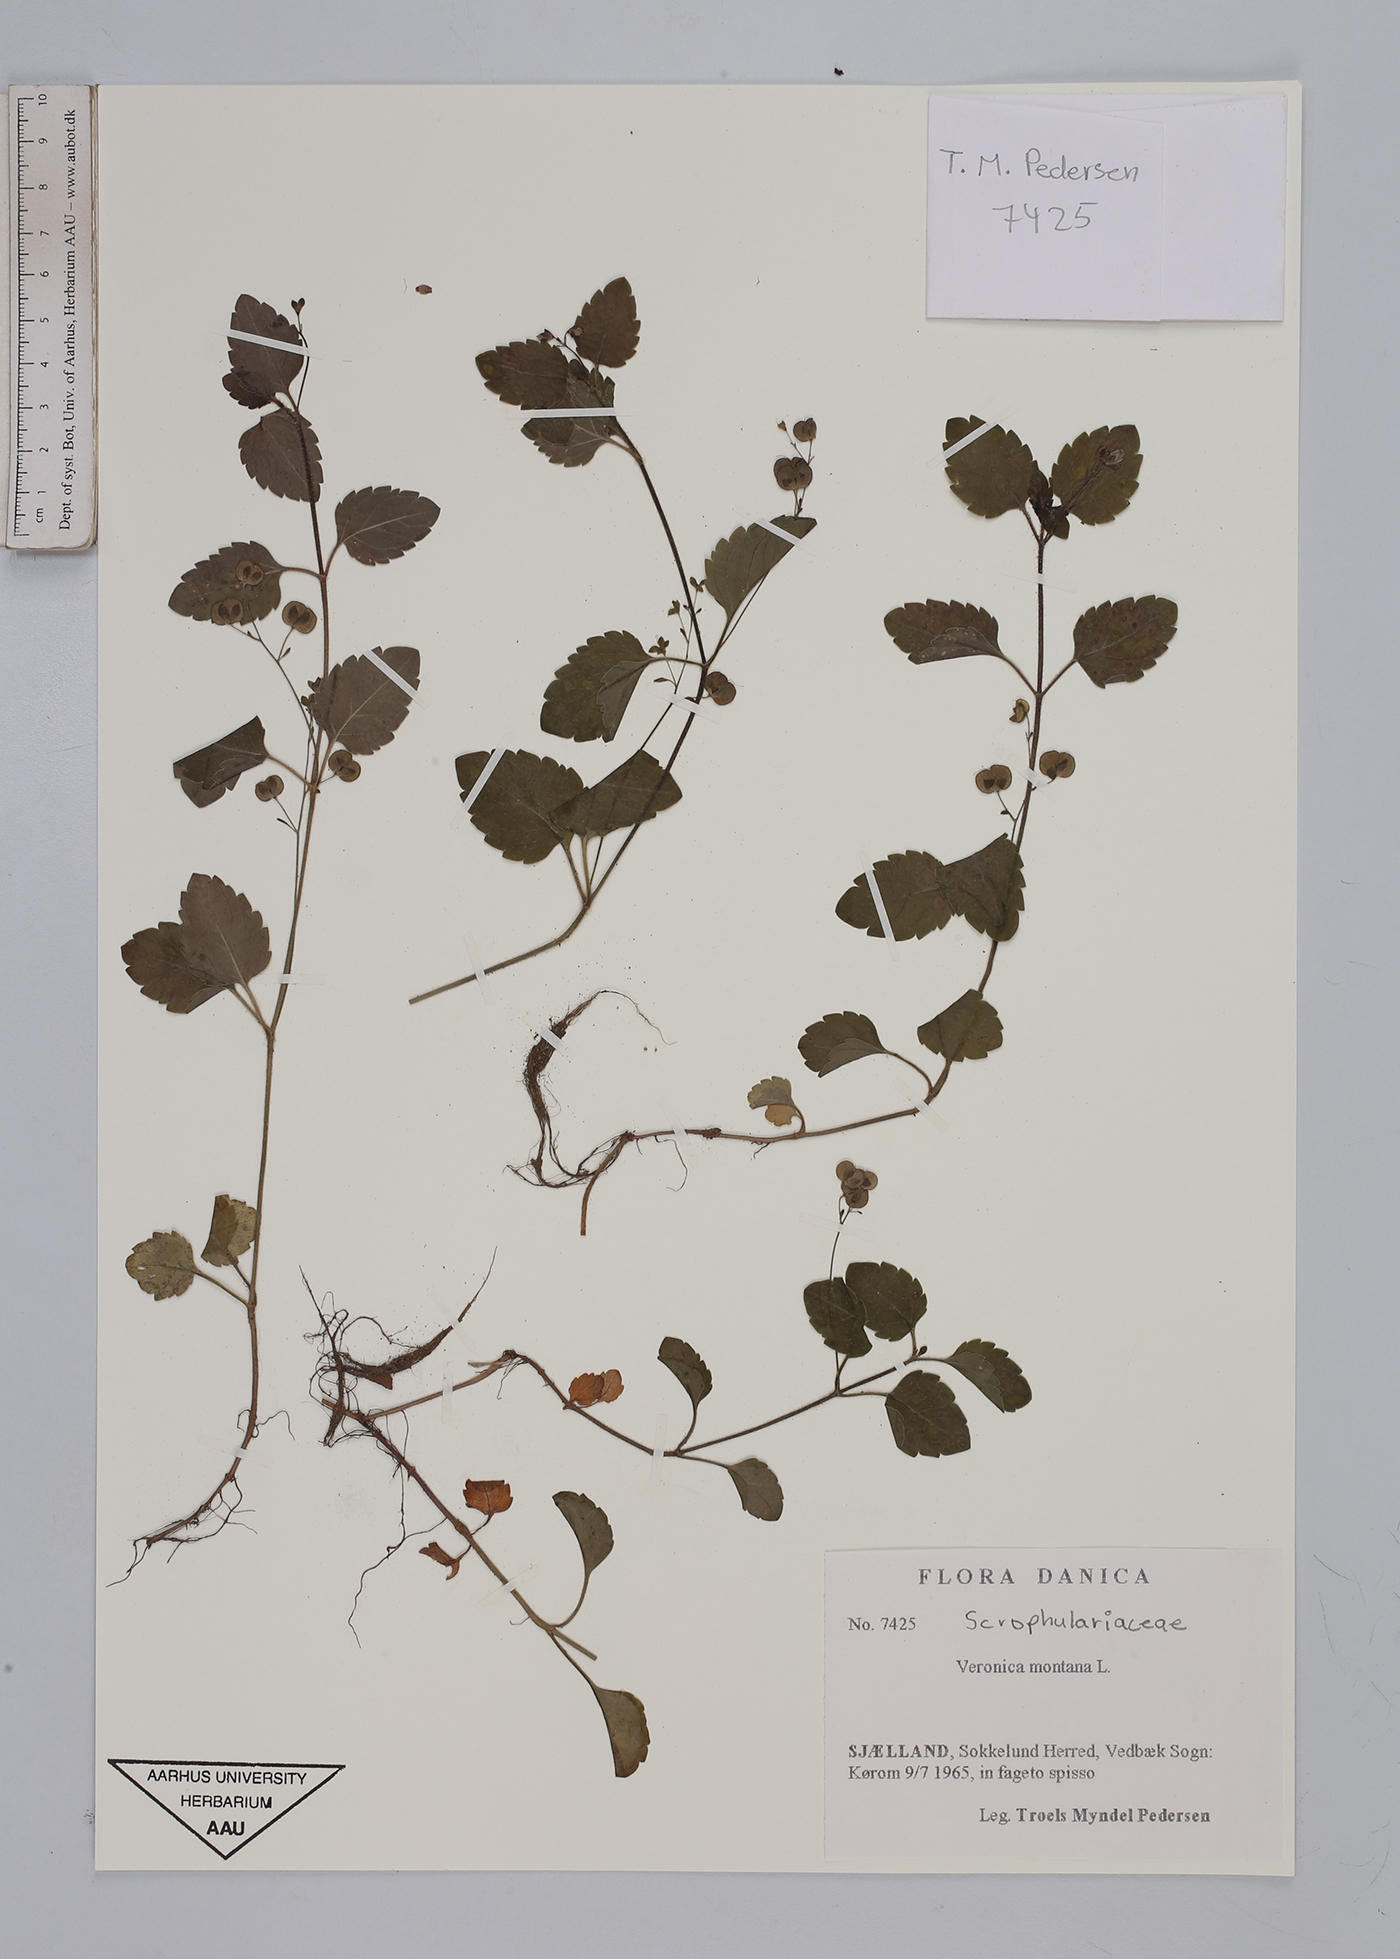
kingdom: Plantae
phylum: Tracheophyta
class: Magnoliopsida
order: Lamiales
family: Plantaginaceae
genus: Veronica
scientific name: Veronica montana
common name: Wood speedwell
